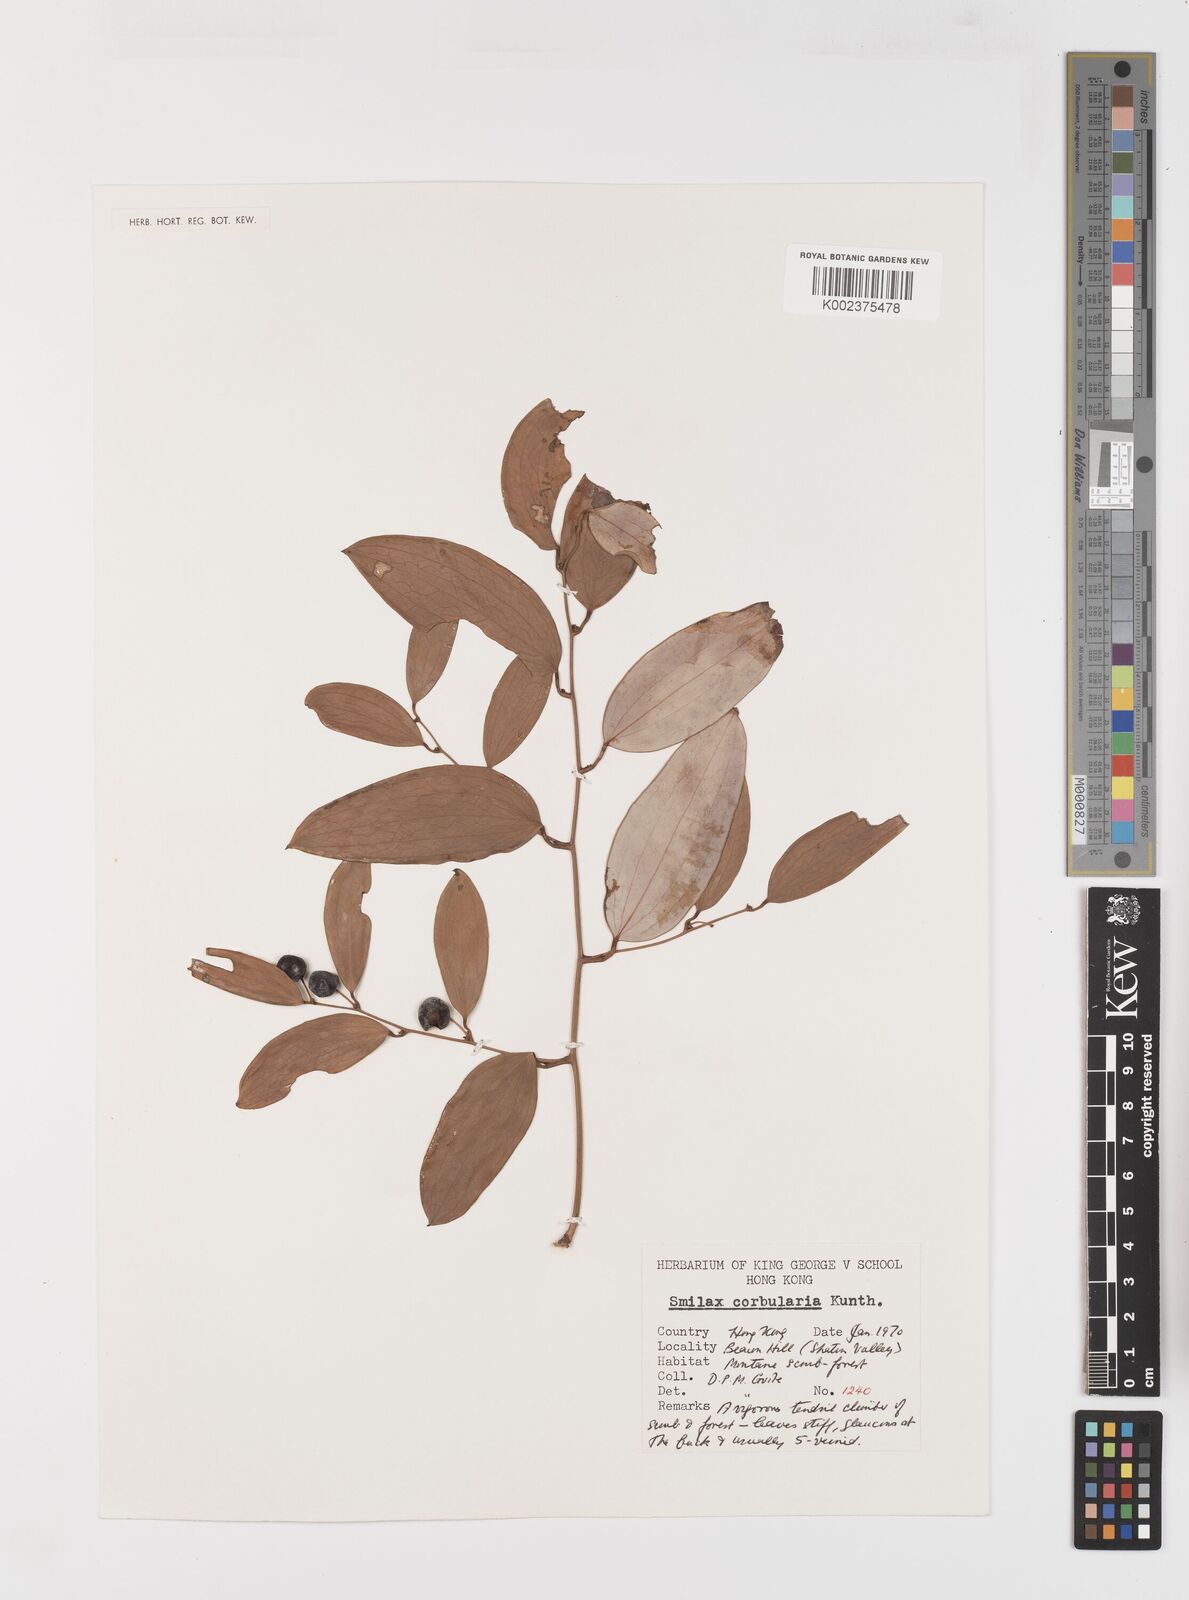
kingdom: Plantae
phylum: Tracheophyta
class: Liliopsida
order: Liliales
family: Smilacaceae
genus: Smilax
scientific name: Smilax glabra
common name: Chinese smilax
